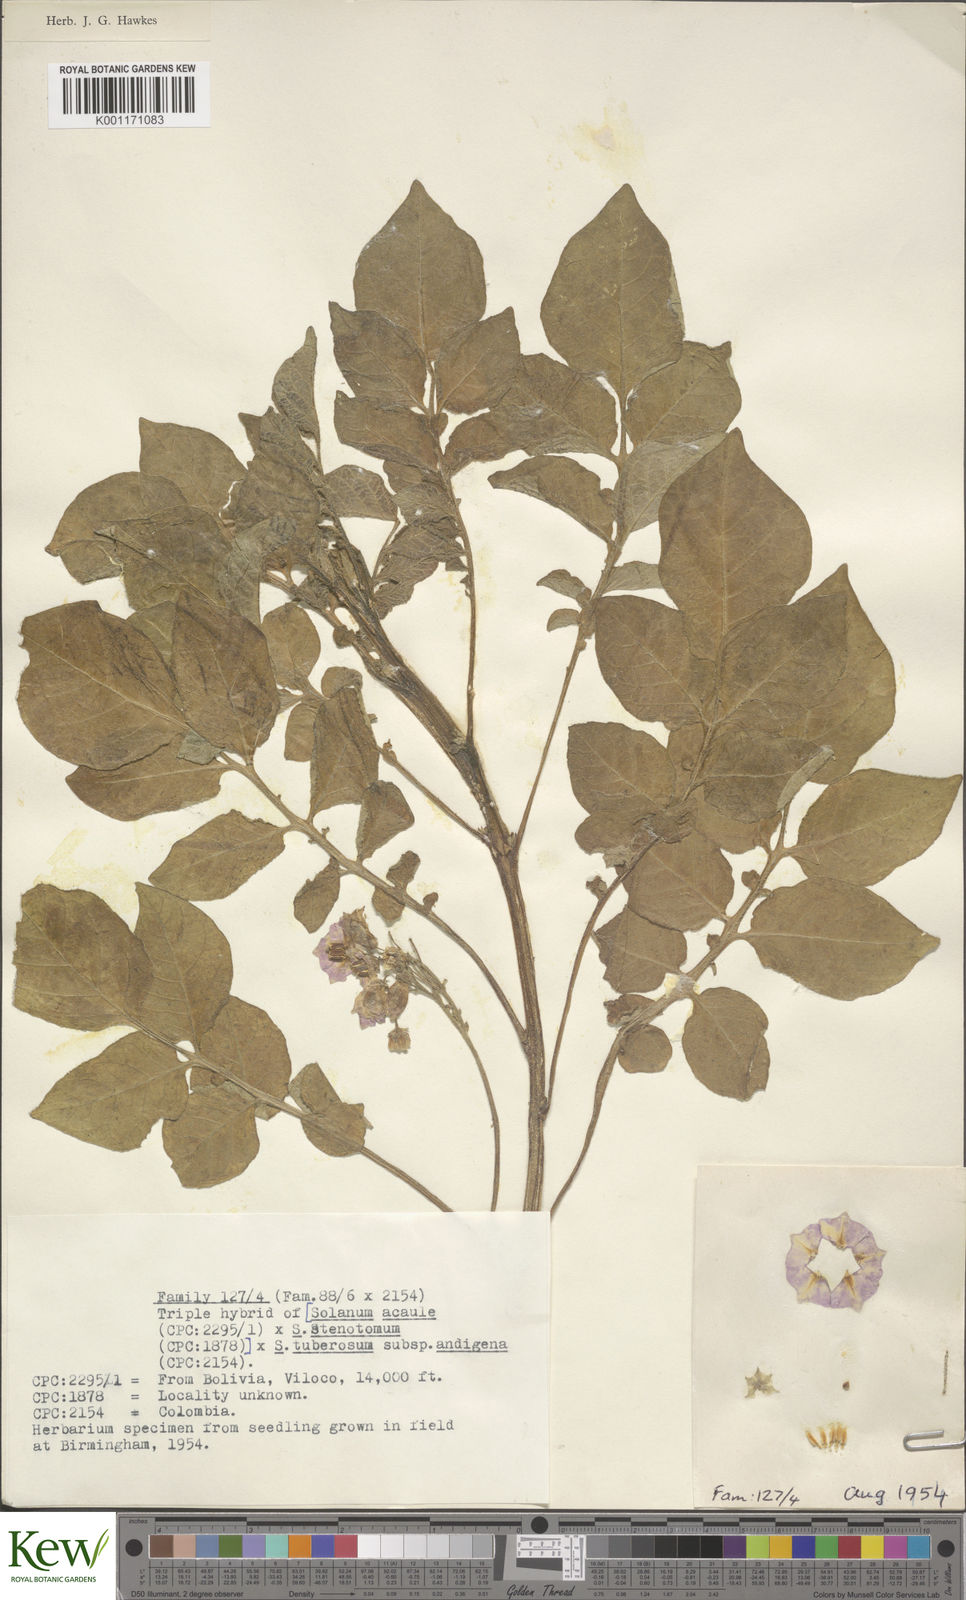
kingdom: Plantae
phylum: Tracheophyta
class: Magnoliopsida
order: Solanales
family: Solanaceae
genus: Solanum
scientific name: Solanum tuberosum
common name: Potato
